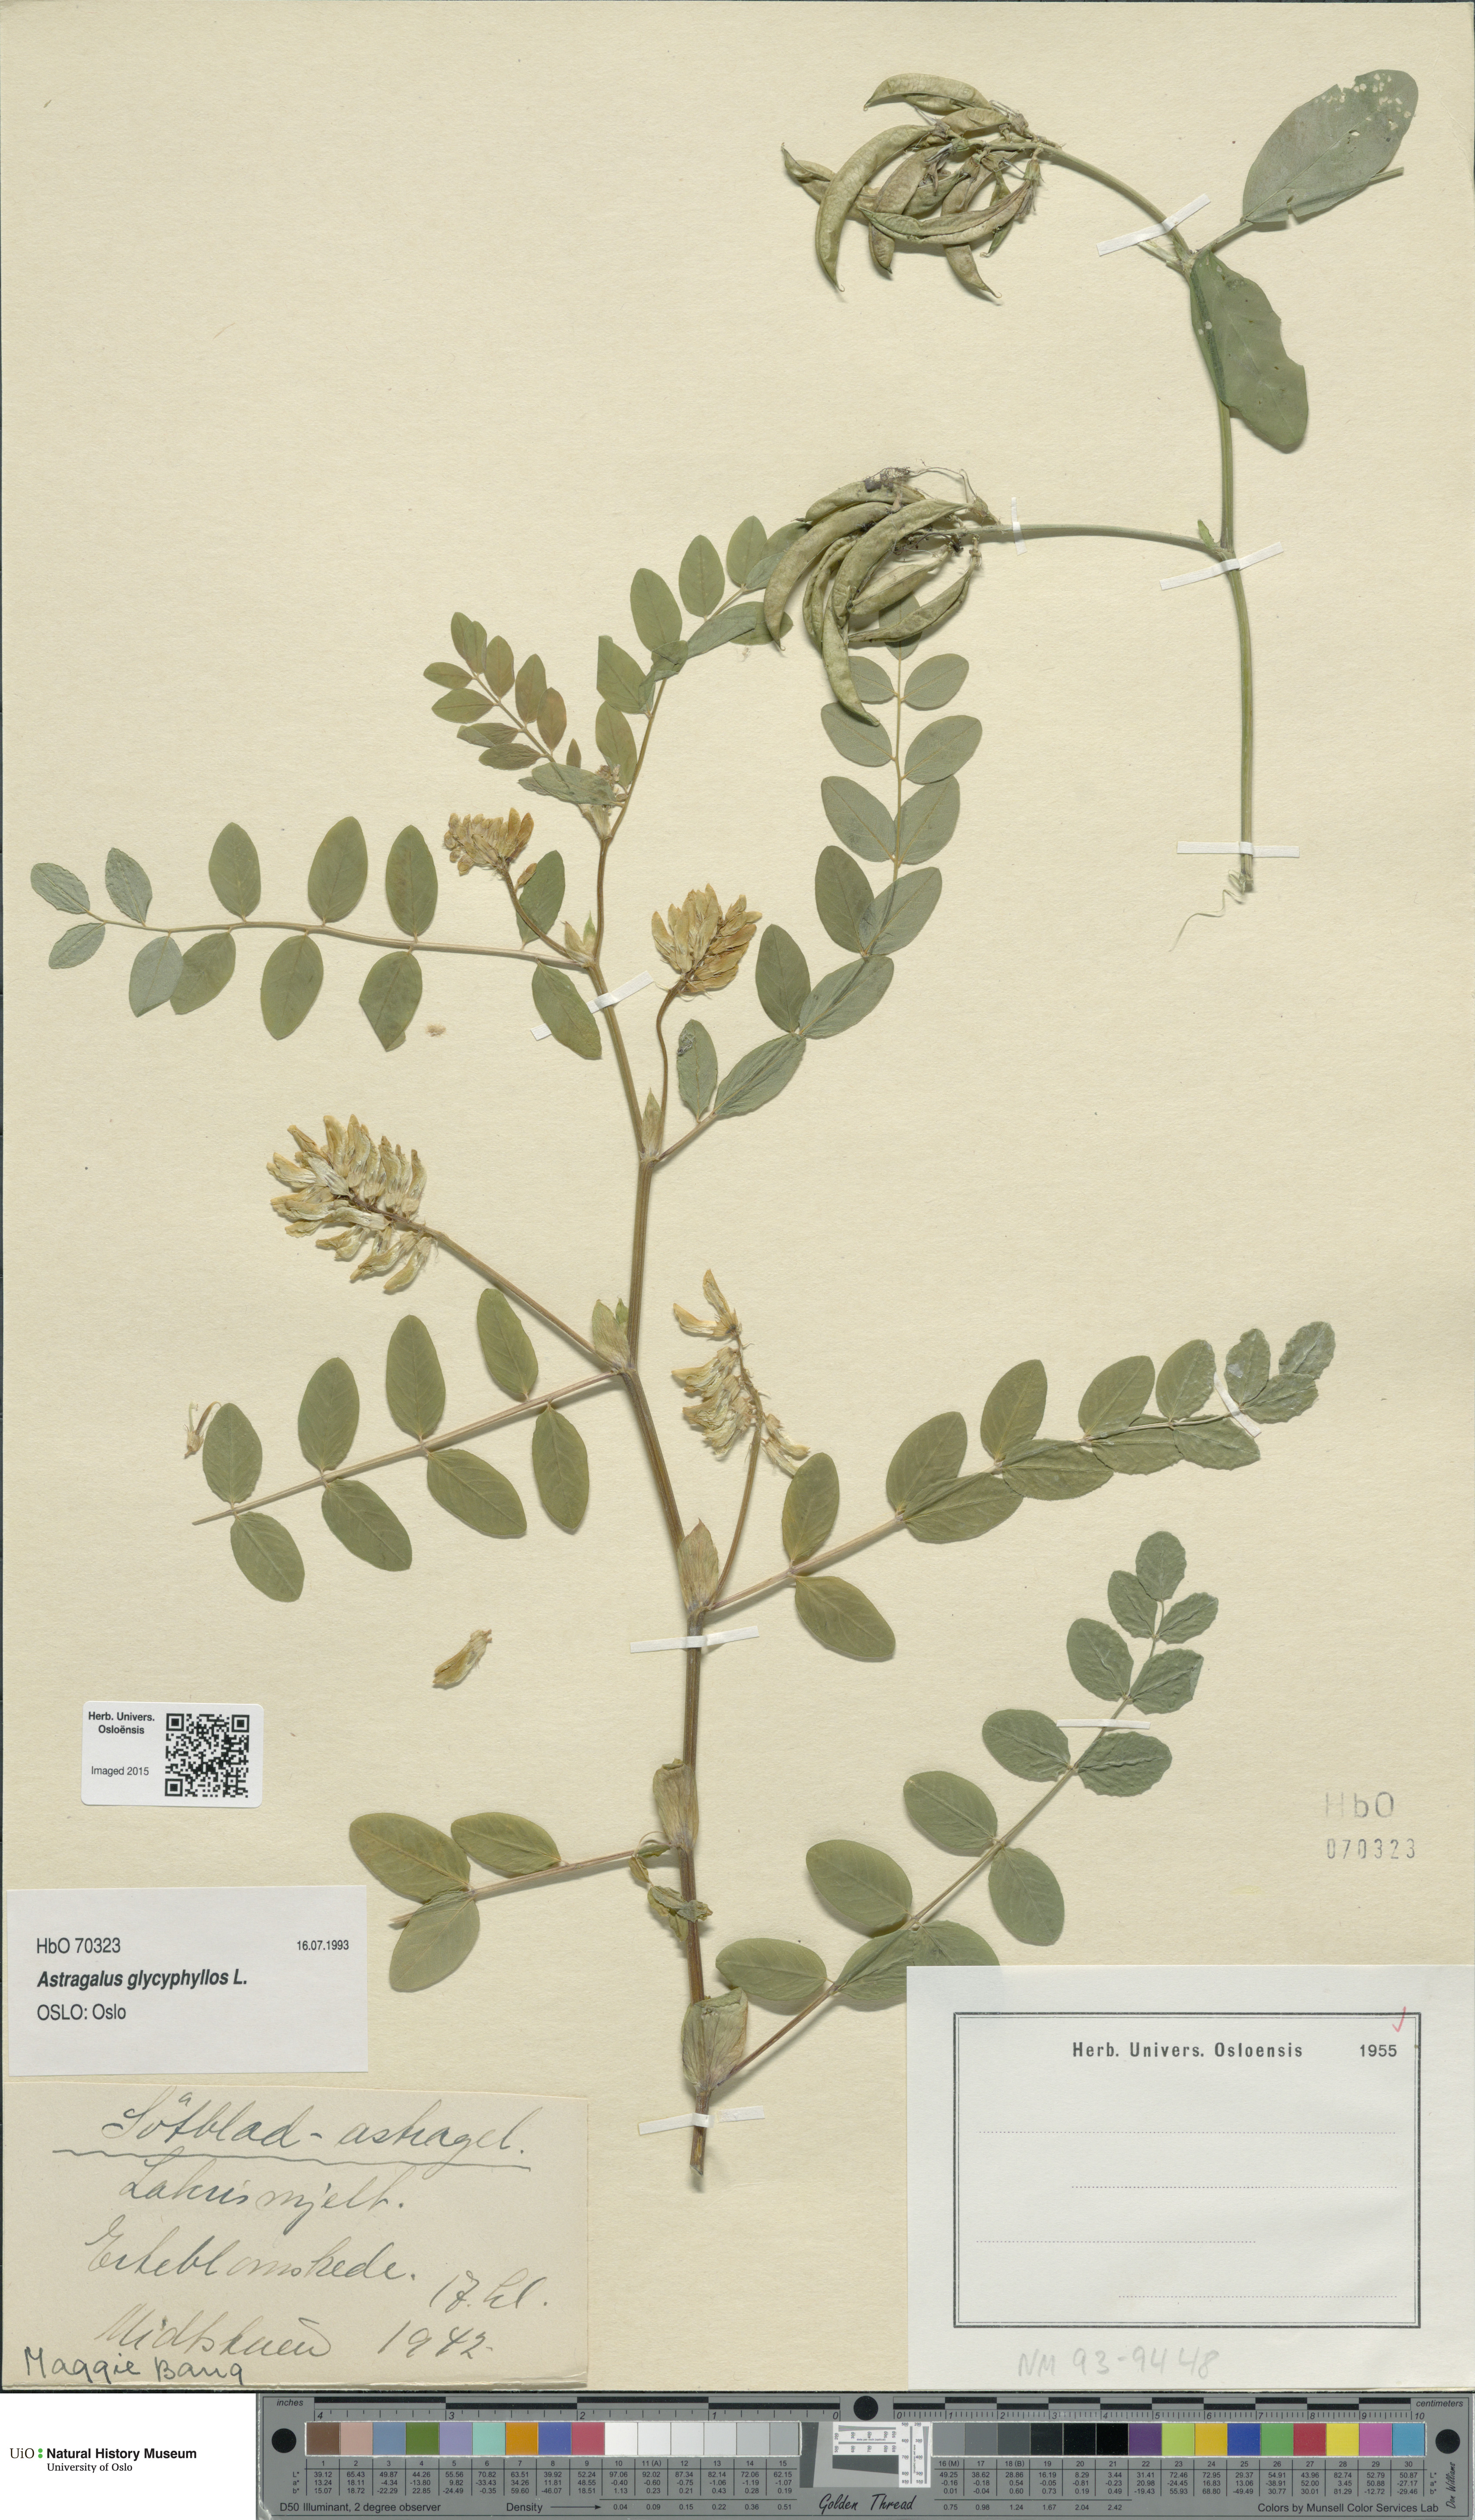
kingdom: Plantae
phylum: Tracheophyta
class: Magnoliopsida
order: Fabales
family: Fabaceae
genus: Astragalus
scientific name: Astragalus glycyphyllos
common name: Wild liquorice
